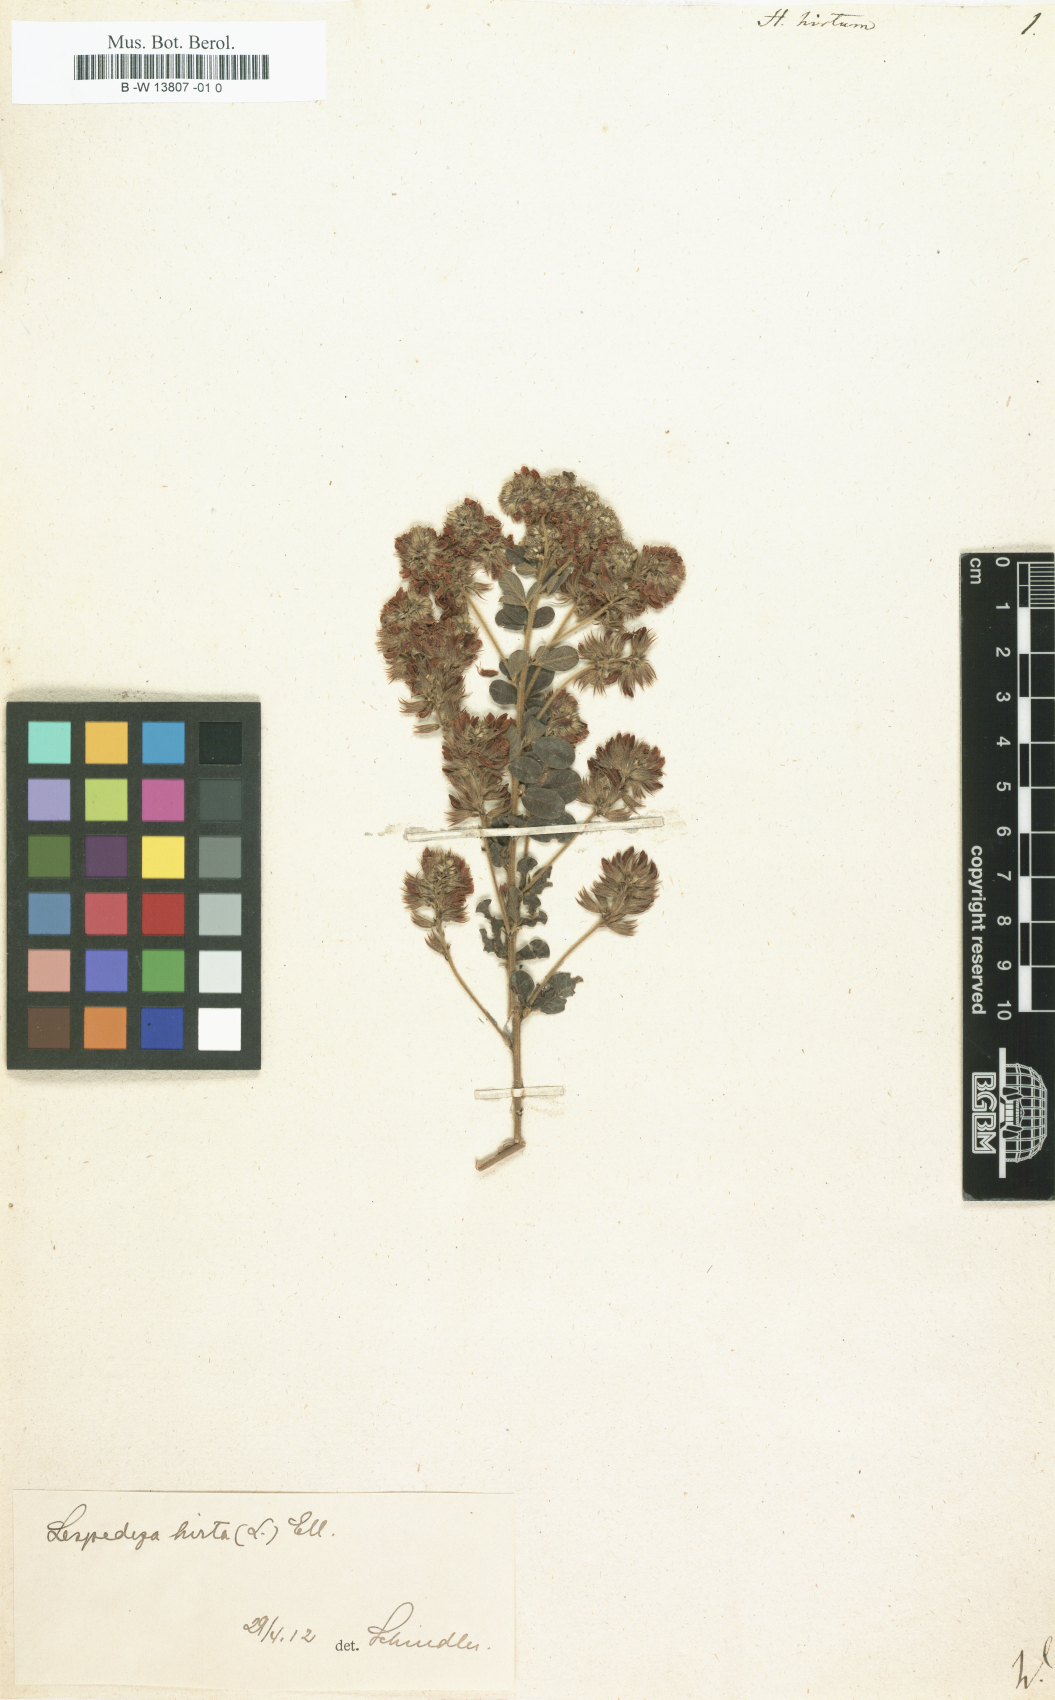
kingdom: Plantae
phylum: Tracheophyta
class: Magnoliopsida
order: Fabales
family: Fabaceae
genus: Lespedeza
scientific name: Lespedeza hirta
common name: Hairy lespedeza
